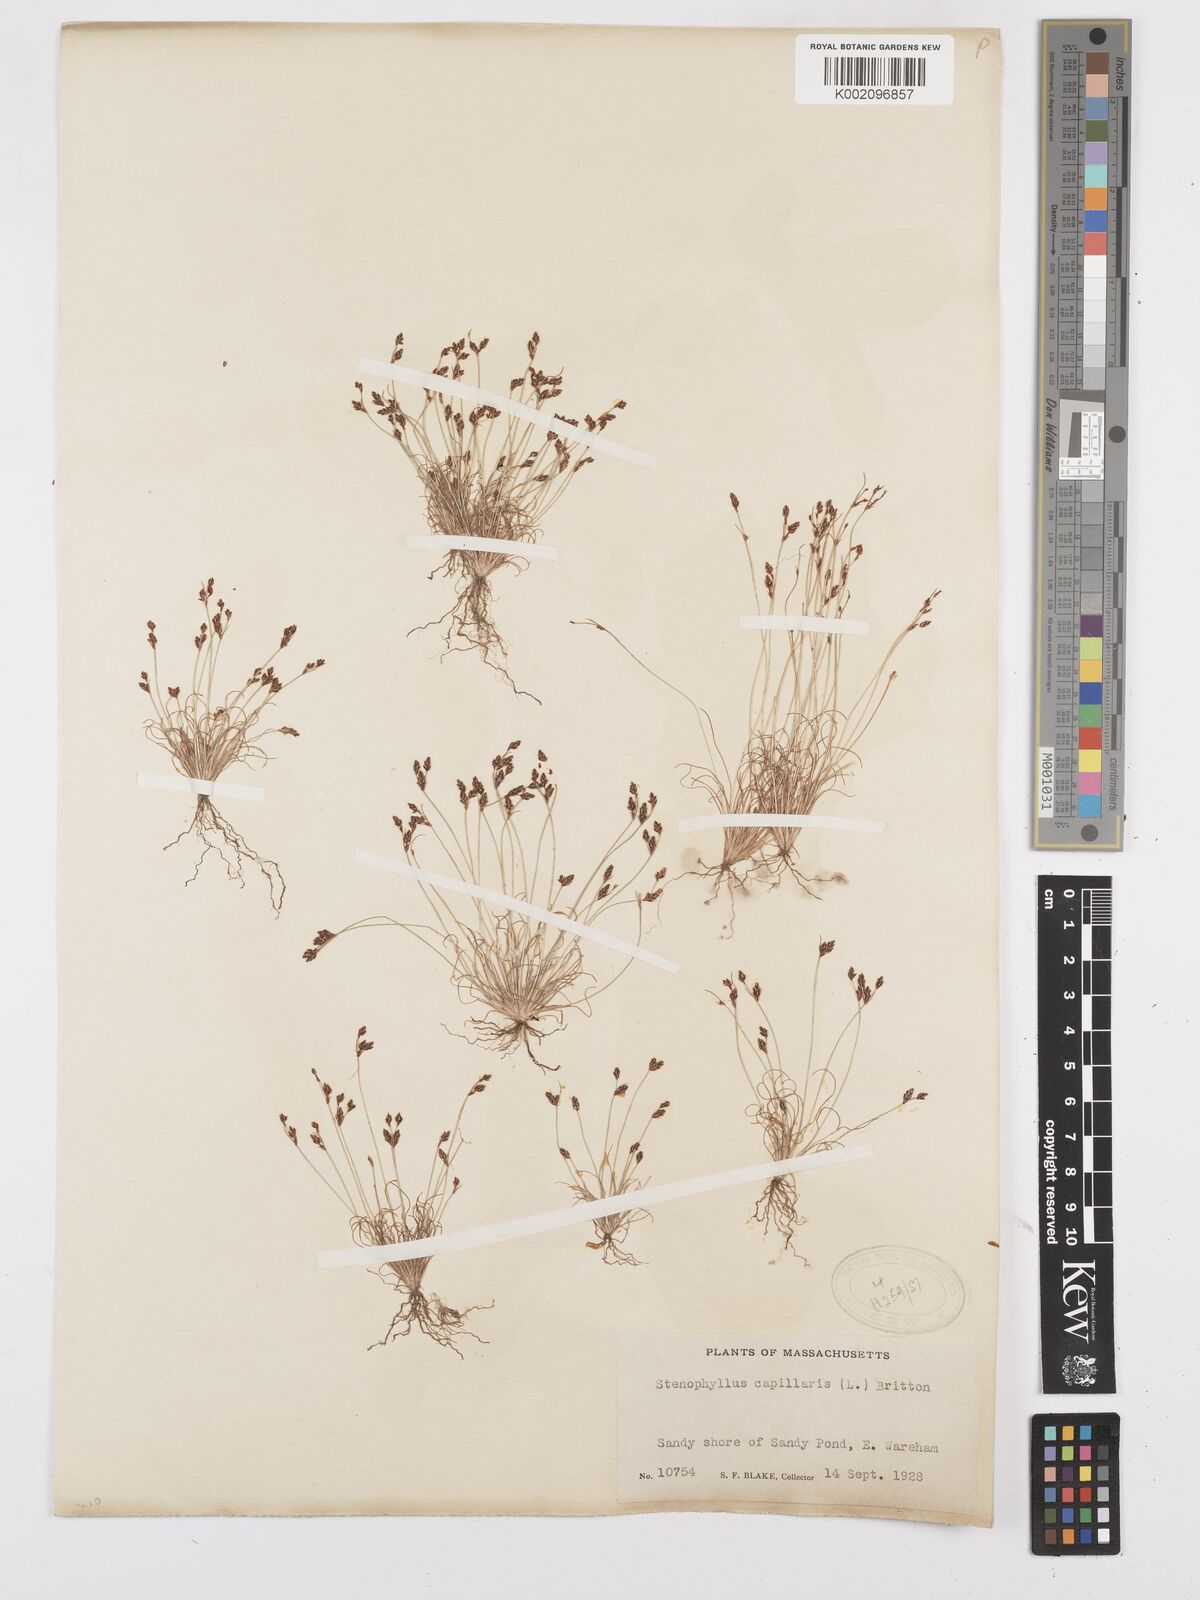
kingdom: Plantae
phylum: Tracheophyta
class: Liliopsida
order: Poales
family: Cyperaceae
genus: Bulbostylis
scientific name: Bulbostylis capillaris
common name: Densetuft hairsedge
